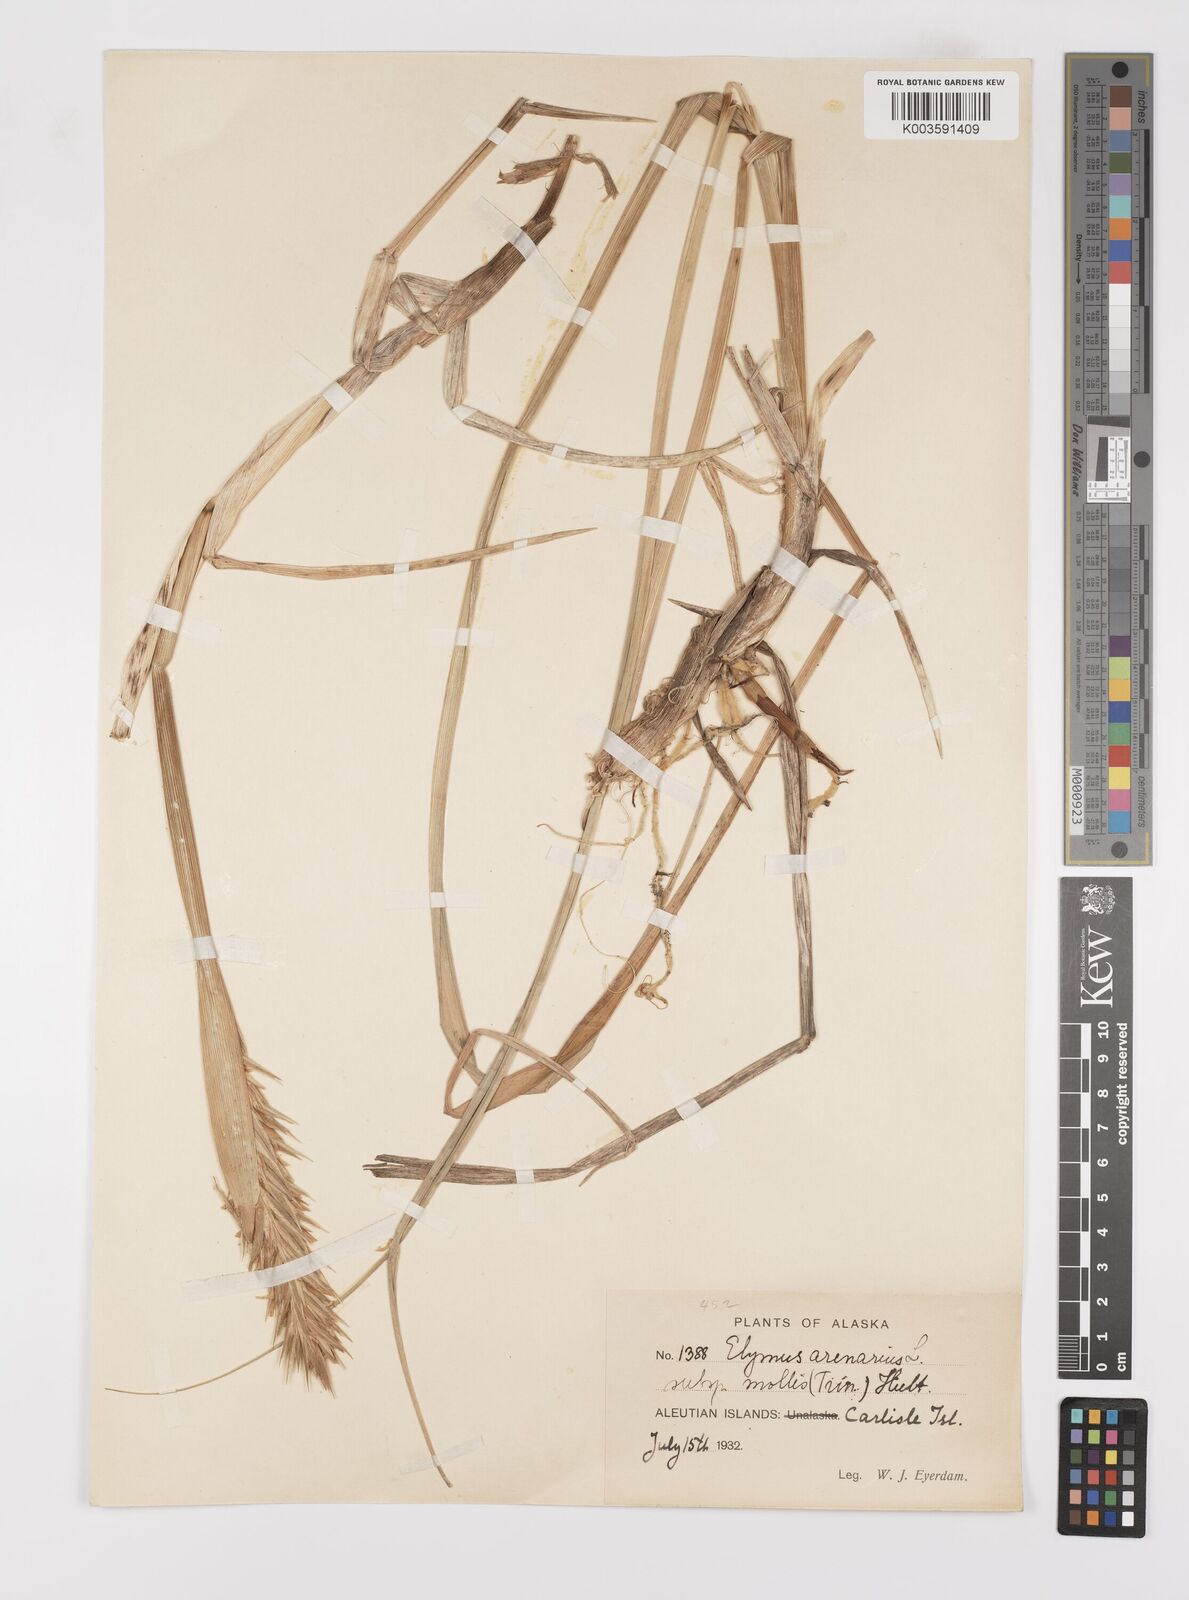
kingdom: Plantae
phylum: Tracheophyta
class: Liliopsida
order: Poales
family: Poaceae
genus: Leymus
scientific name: Leymus mollis
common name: American dune grass
